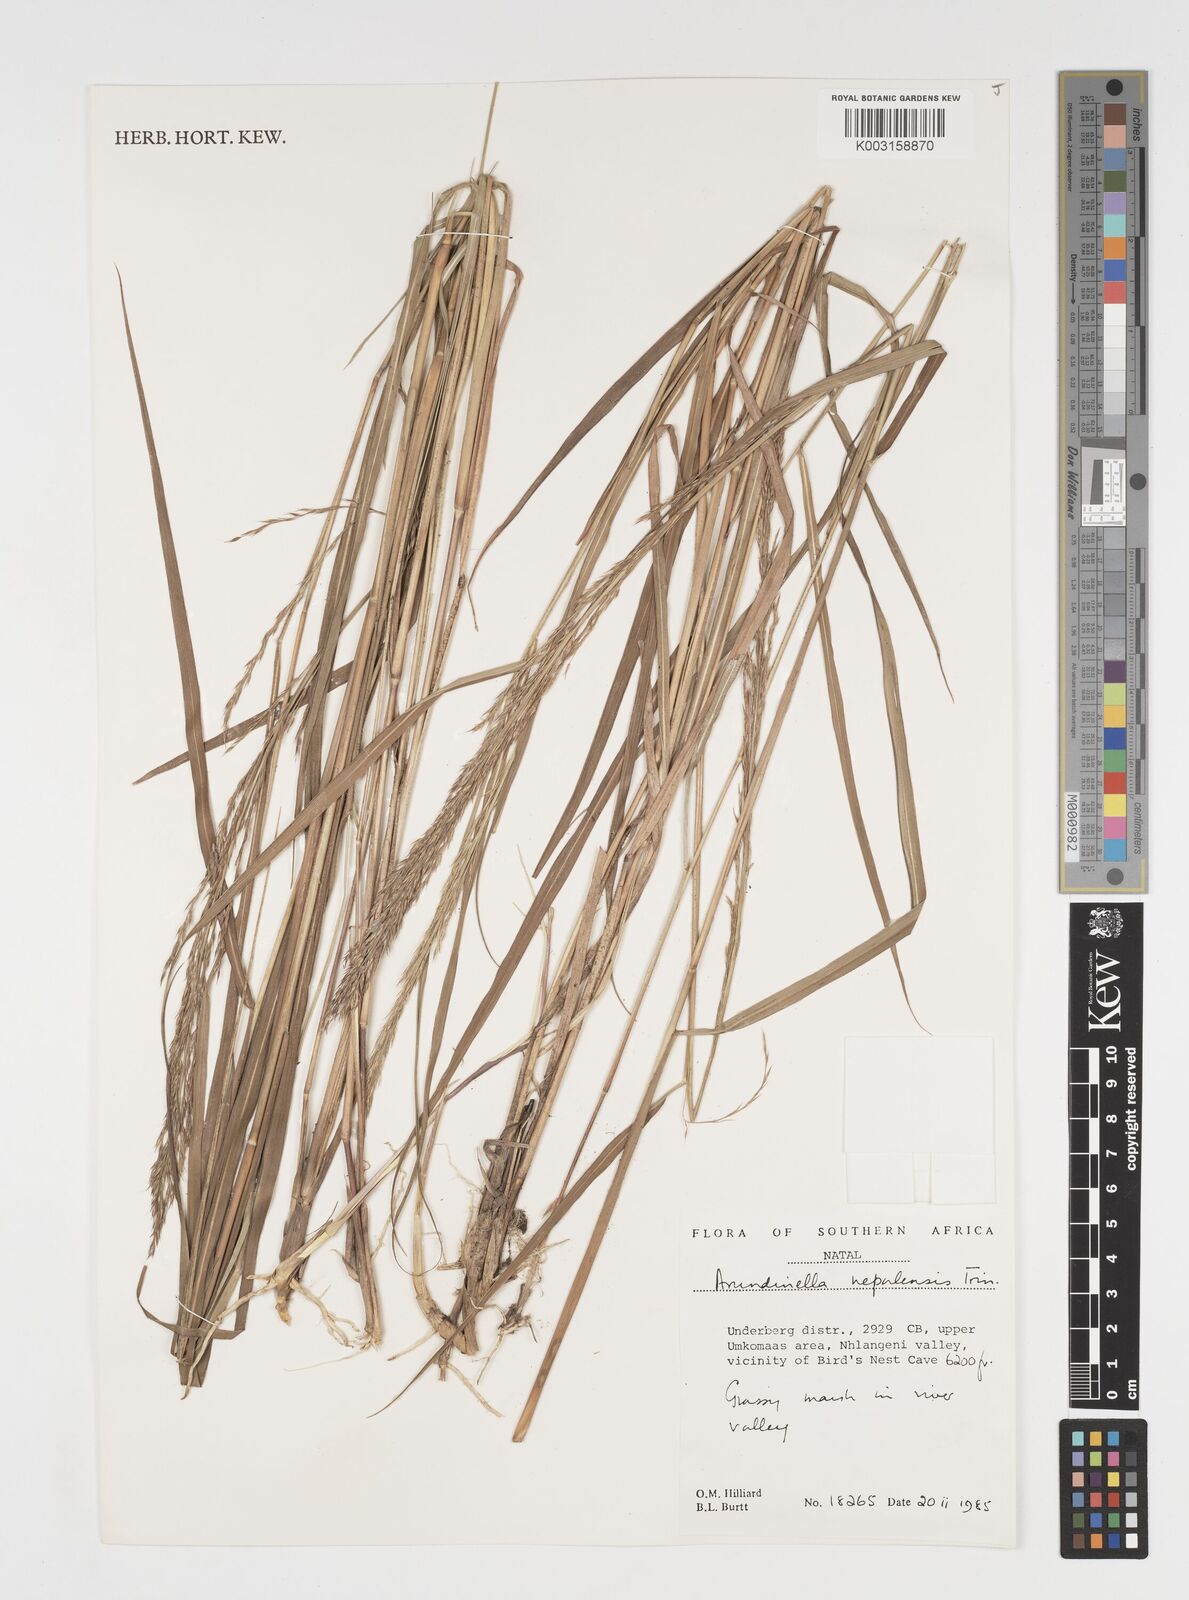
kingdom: Plantae
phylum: Tracheophyta
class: Liliopsida
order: Poales
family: Poaceae
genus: Arundinella
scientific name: Arundinella nepalensis
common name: Reed grass
